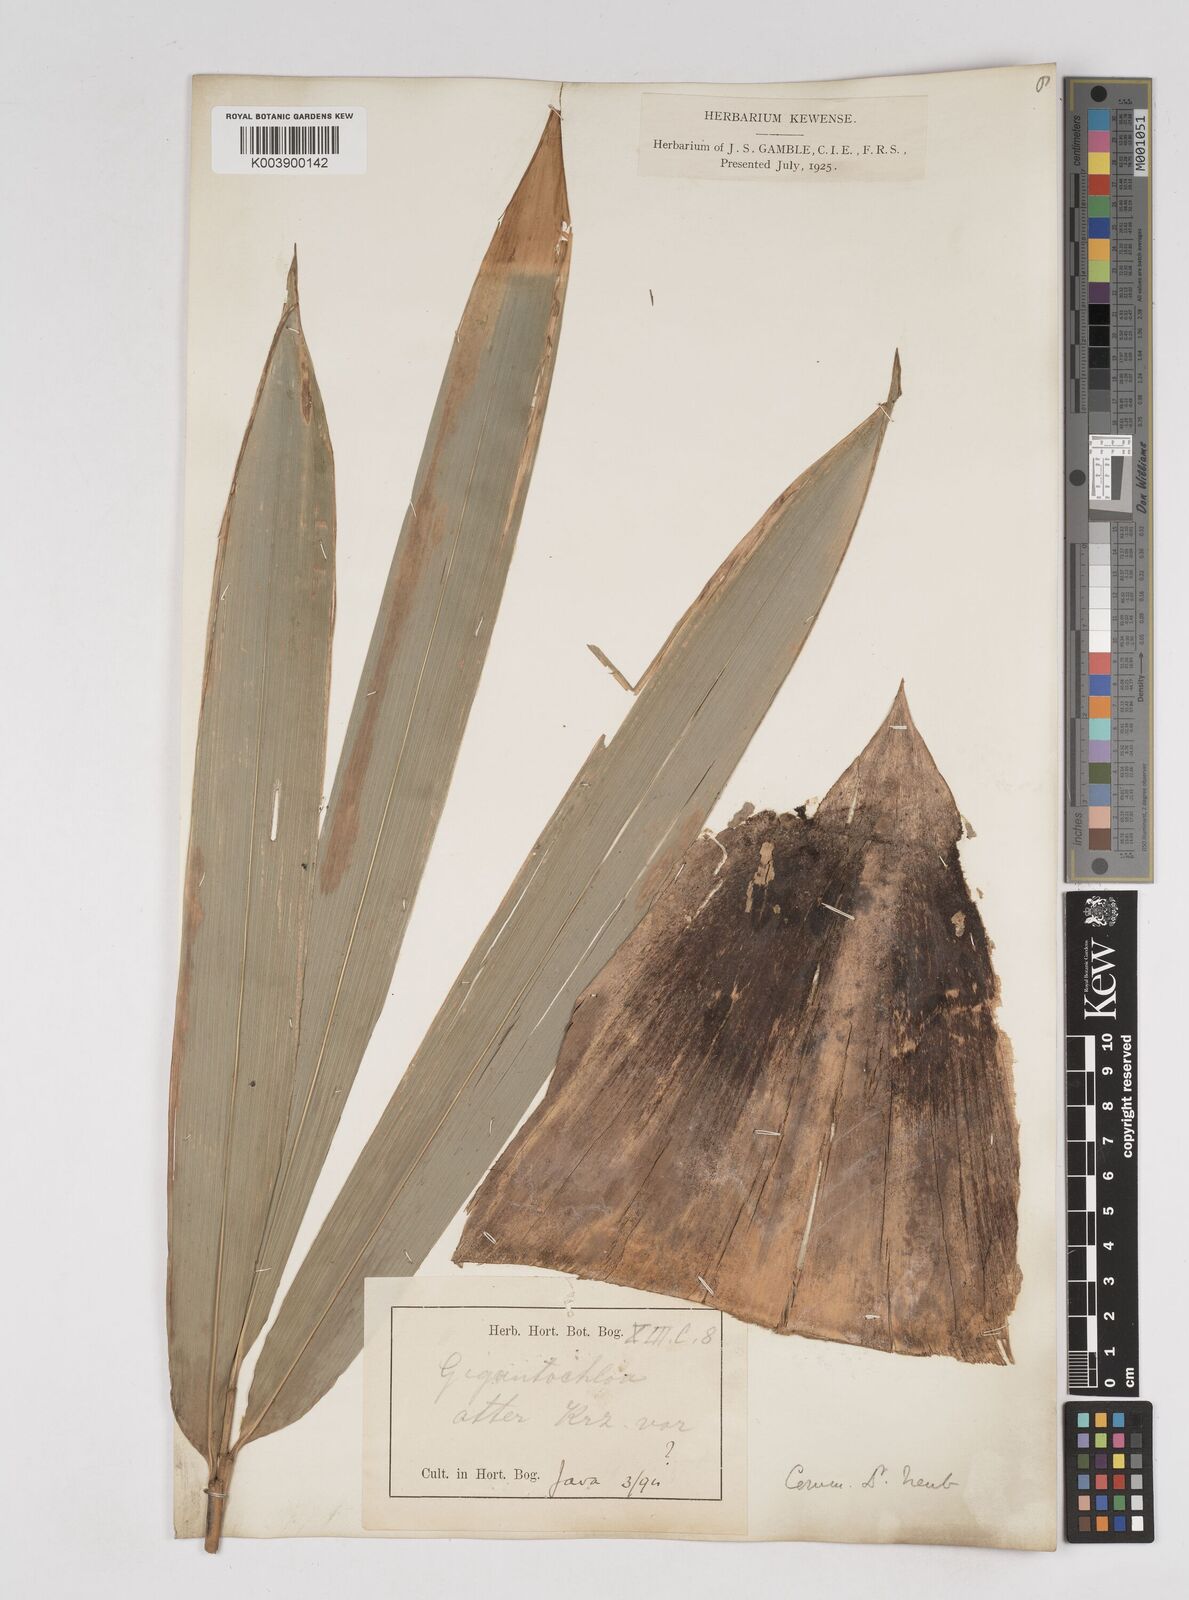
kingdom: Plantae
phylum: Tracheophyta
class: Liliopsida
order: Poales
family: Poaceae
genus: Gigantochloa
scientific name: Gigantochloa atter
